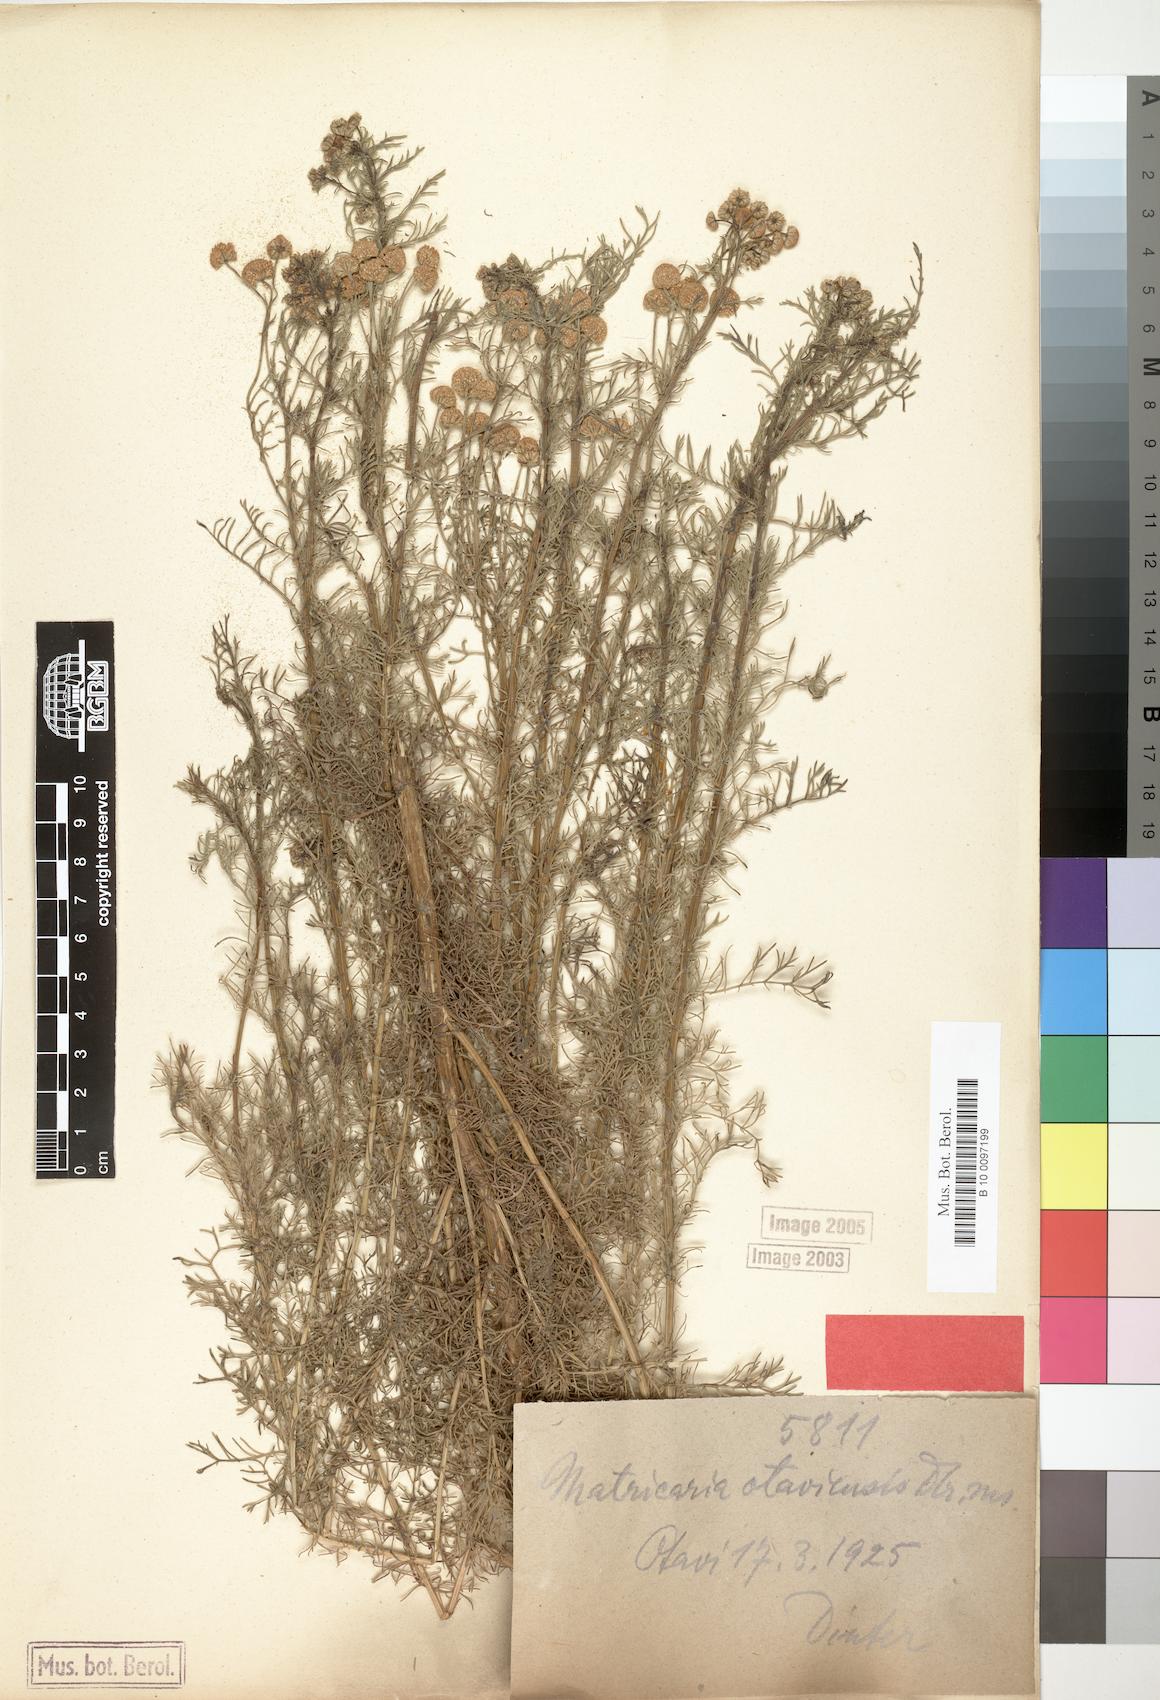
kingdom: Plantae
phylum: Tracheophyta
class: Magnoliopsida
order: Asterales
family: Asteraceae
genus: Pentzia
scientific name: Pentzia eenii
